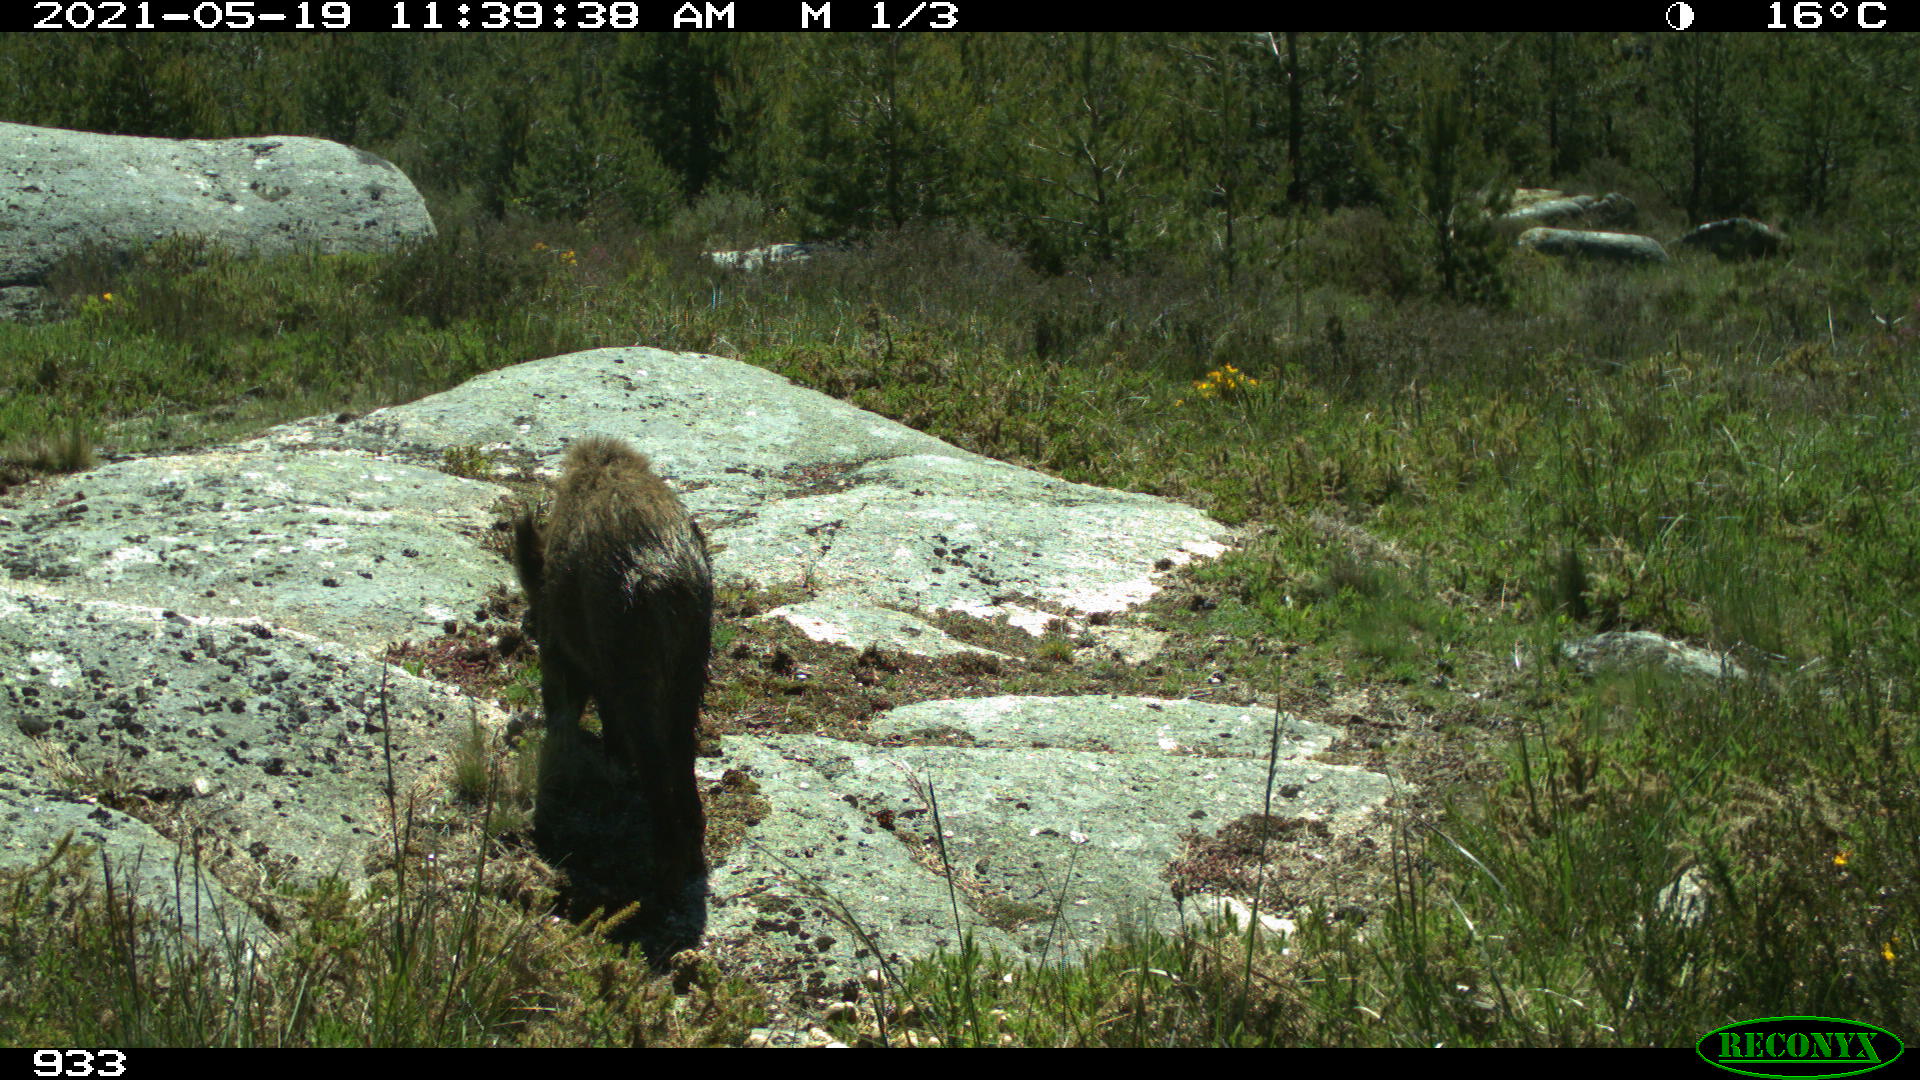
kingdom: Animalia
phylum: Chordata
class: Mammalia
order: Artiodactyla
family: Suidae
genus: Sus
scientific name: Sus scrofa
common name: Wild boar
